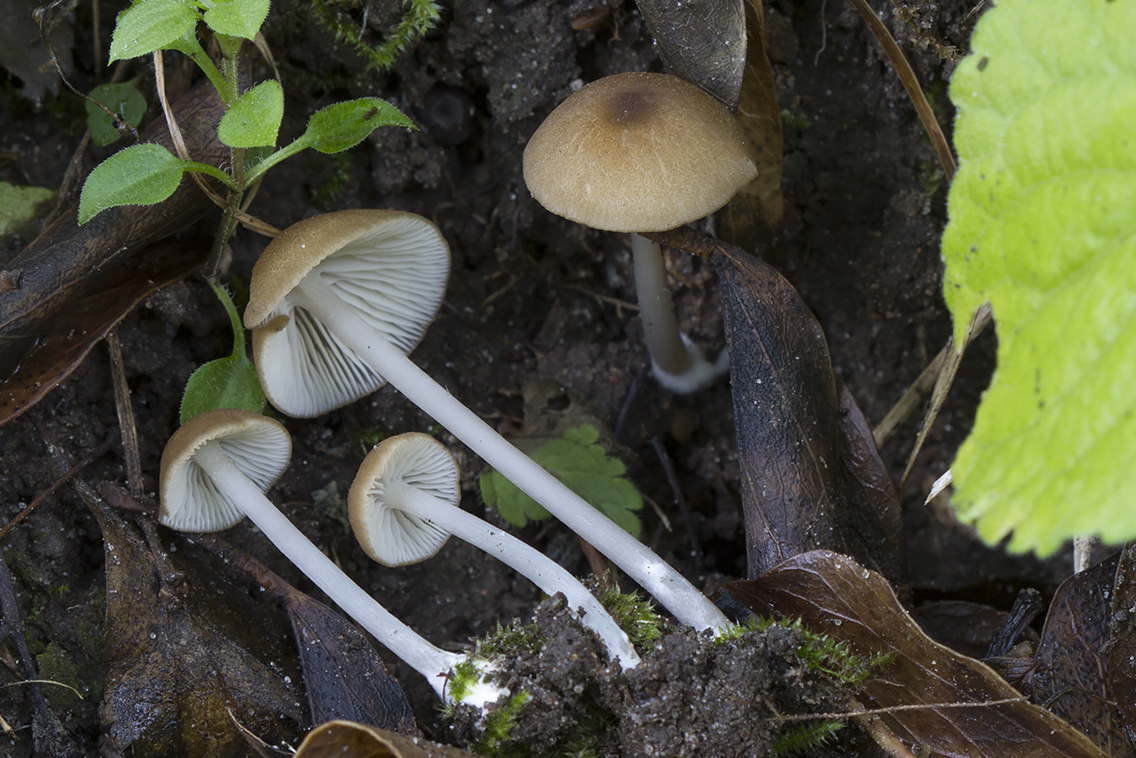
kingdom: Fungi
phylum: Basidiomycota
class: Agaricomycetes
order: Agaricales
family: Entolomataceae
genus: Entoloma
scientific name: Entoloma
